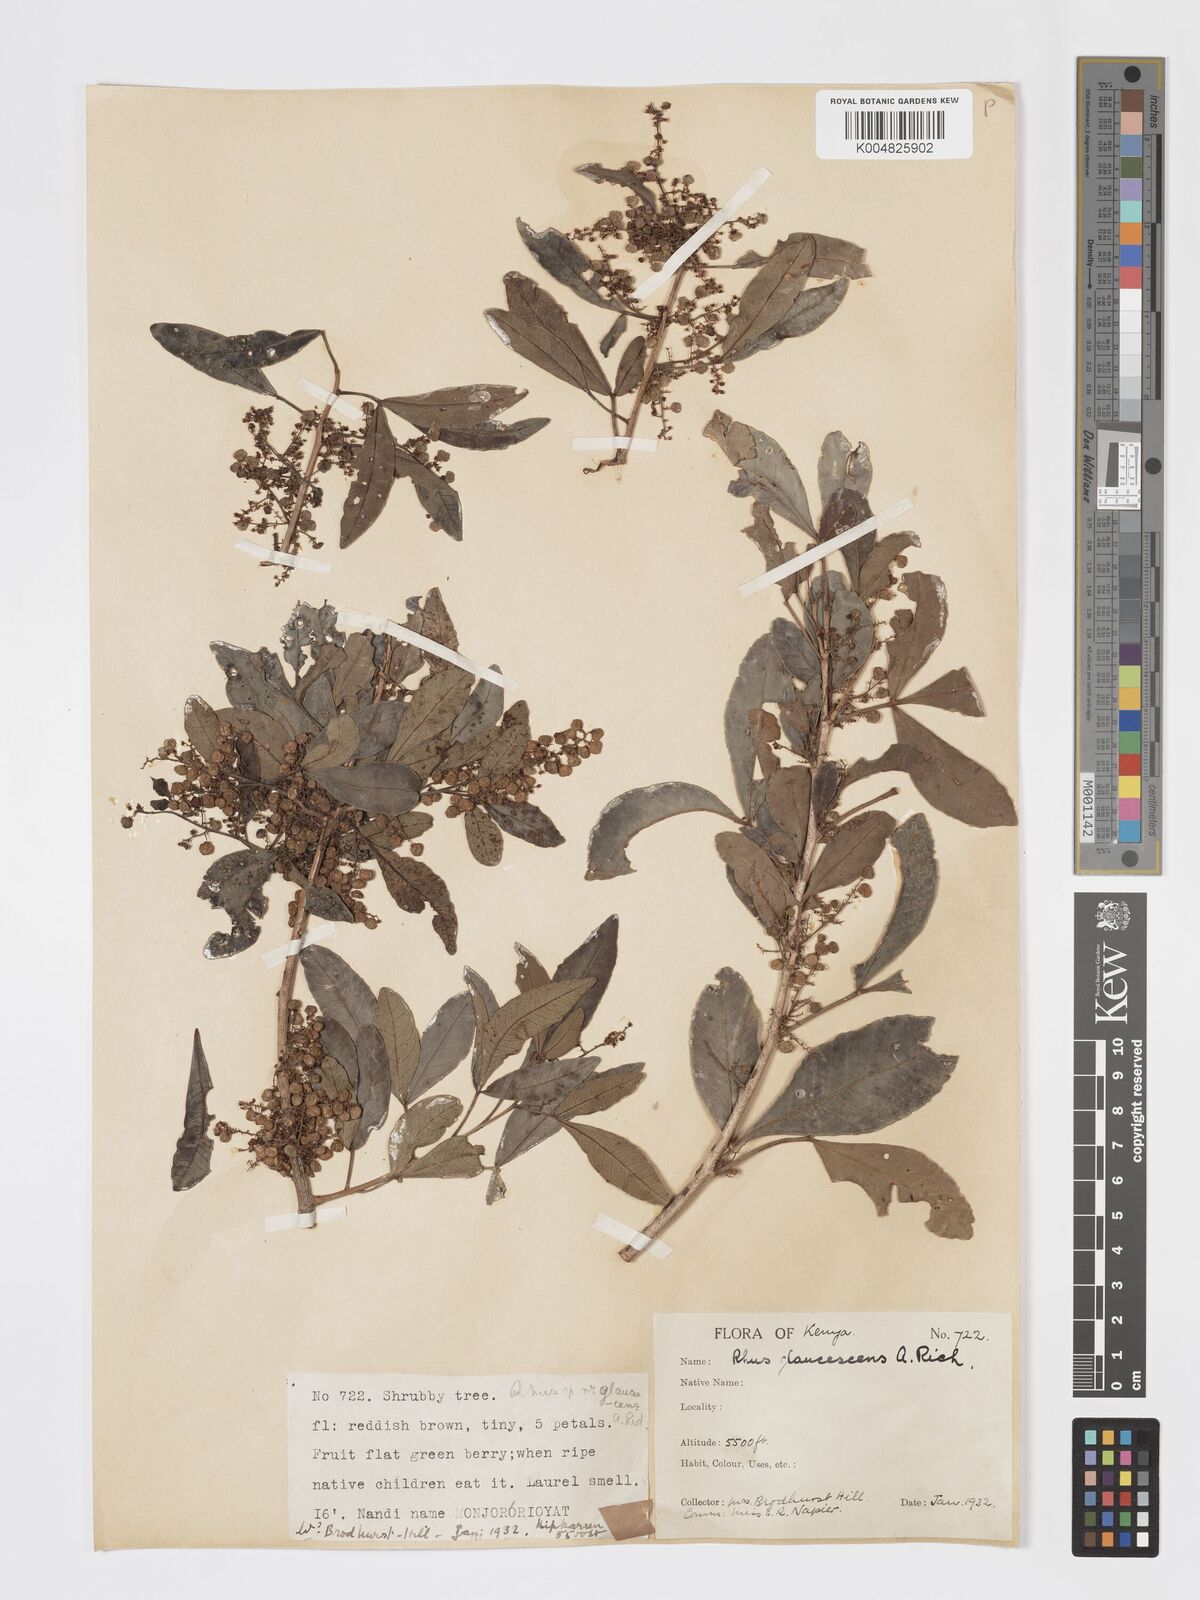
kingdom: Plantae
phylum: Tracheophyta
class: Magnoliopsida
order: Sapindales
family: Anacardiaceae
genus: Searsia
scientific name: Searsia natalensis
